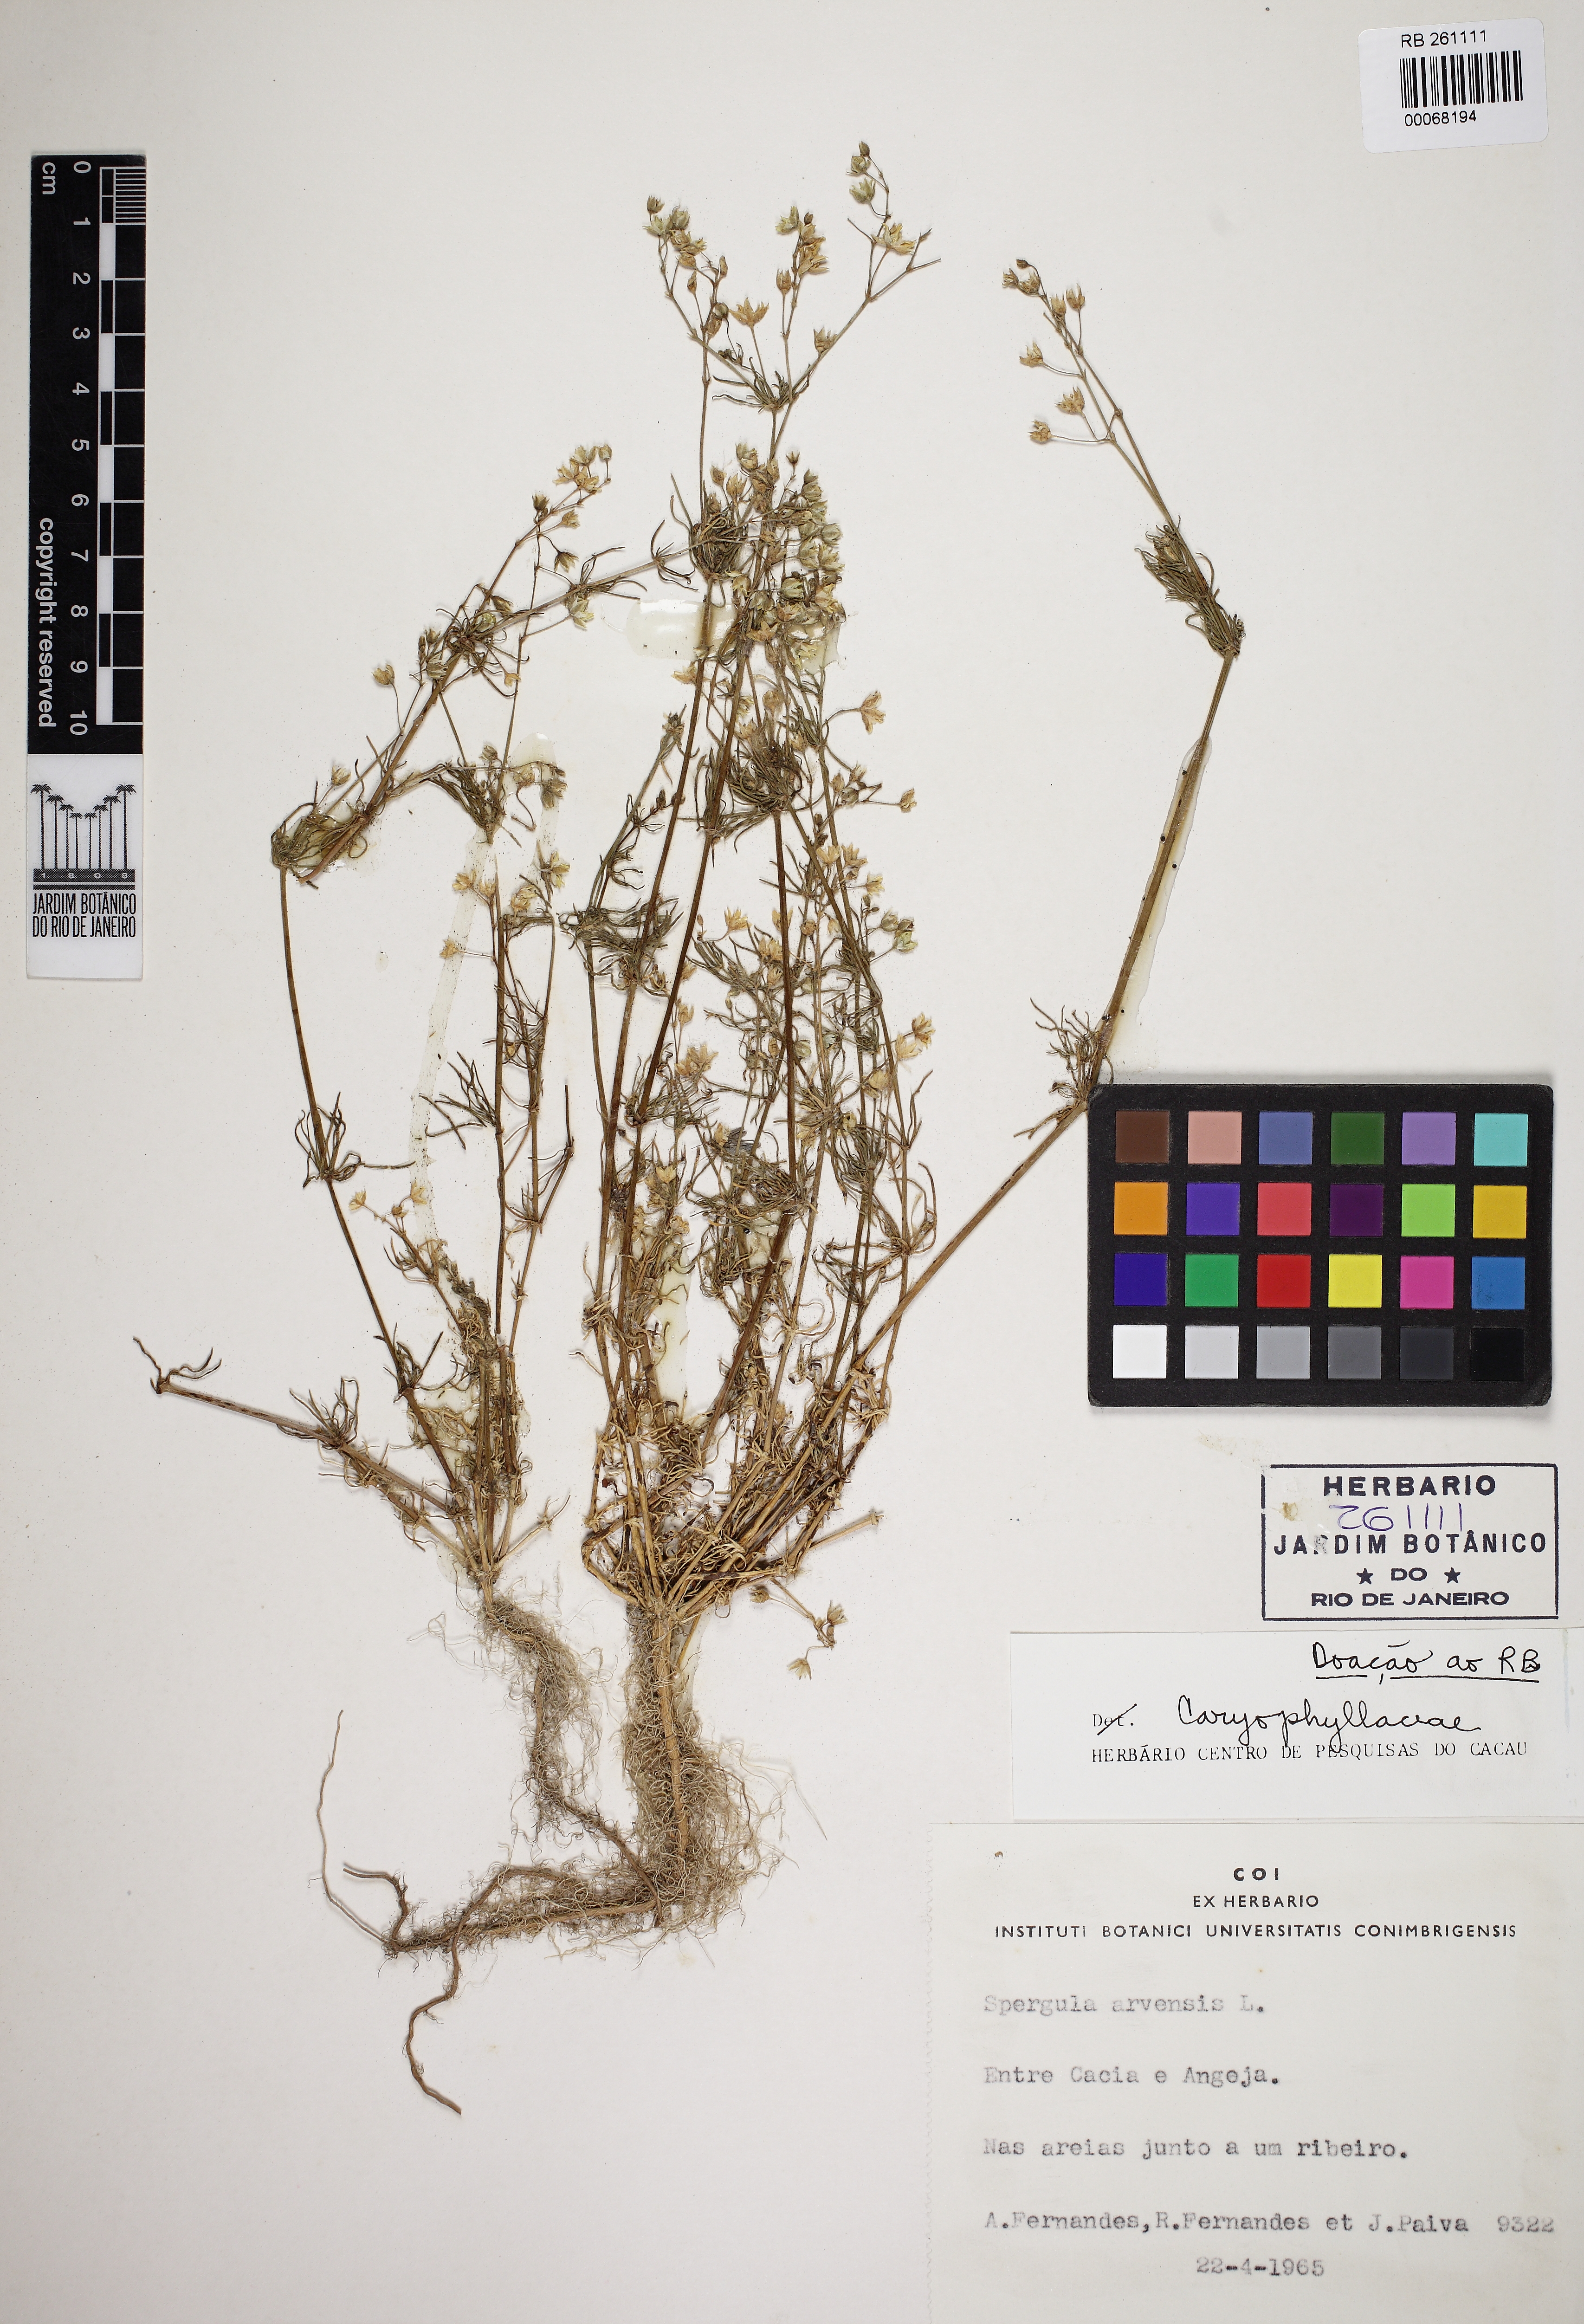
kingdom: Plantae
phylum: Tracheophyta
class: Magnoliopsida
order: Caryophyllales
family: Caryophyllaceae
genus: Spergula
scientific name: Spergula arvensis
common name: Corn spurrey
